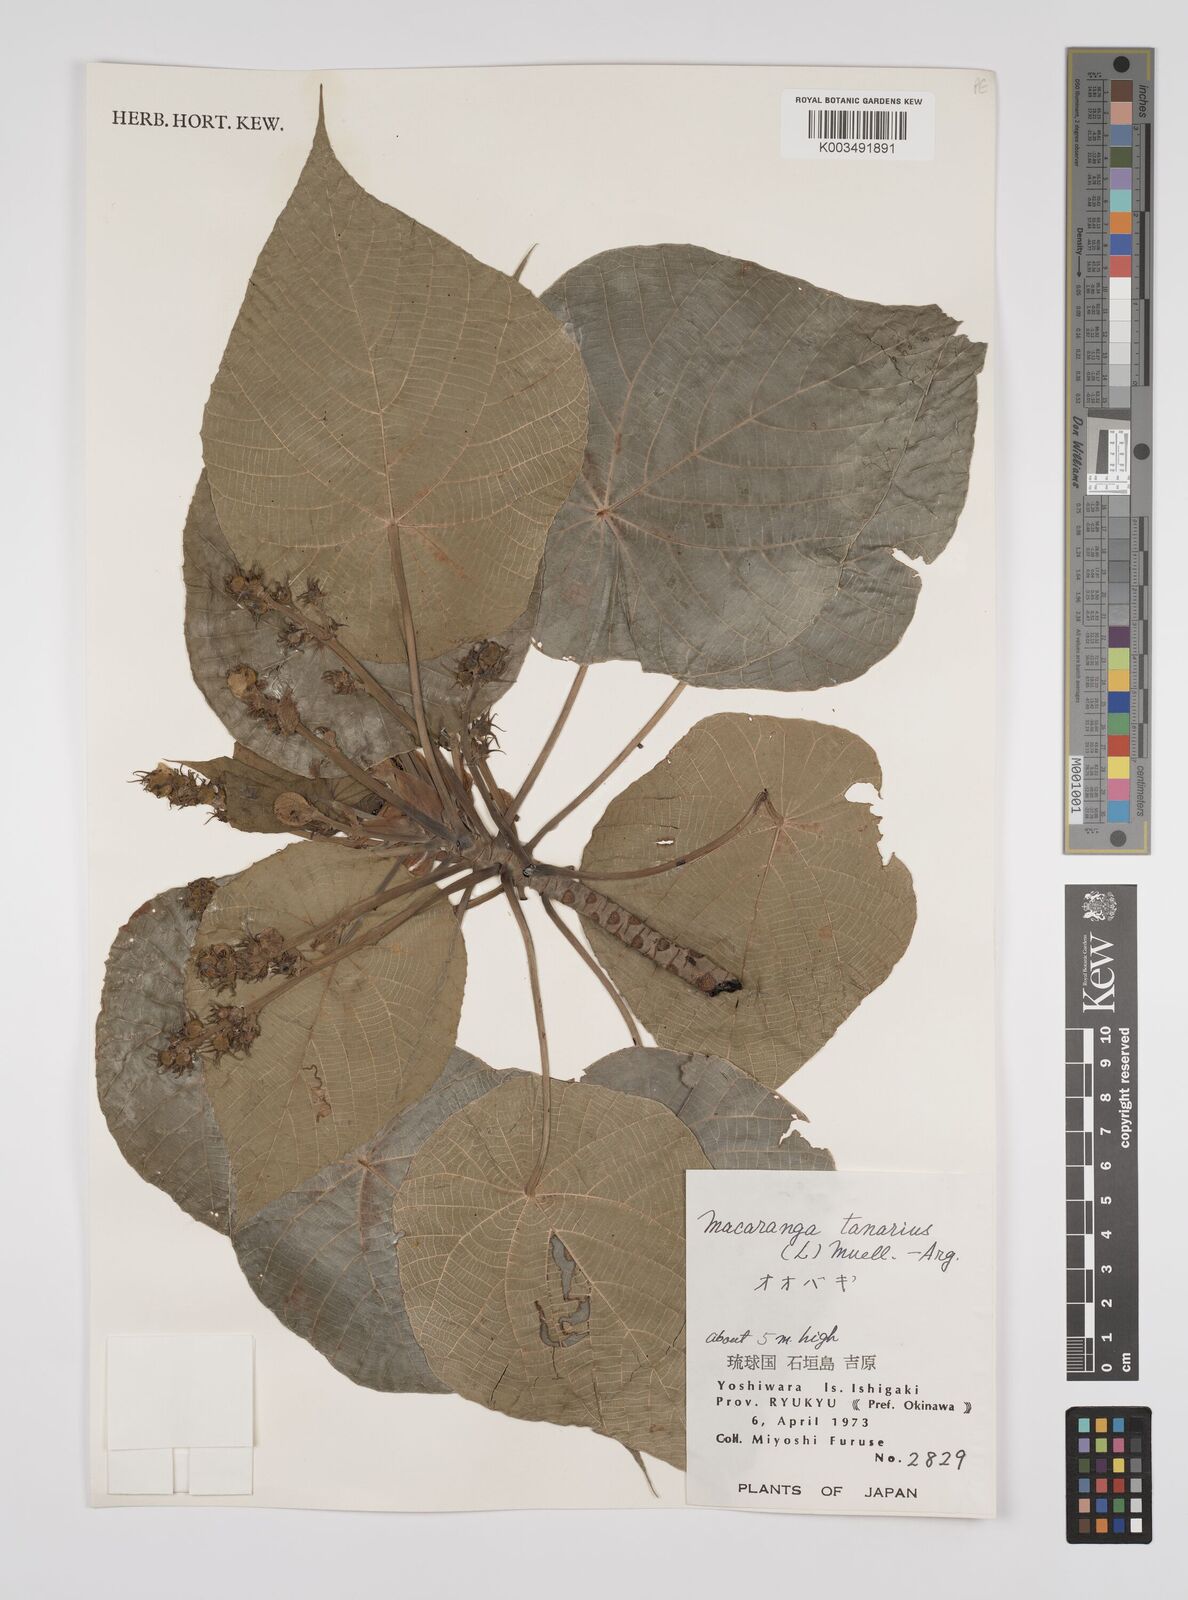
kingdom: Plantae
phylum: Tracheophyta
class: Magnoliopsida
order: Malpighiales
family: Euphorbiaceae
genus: Macaranga
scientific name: Macaranga tanarius
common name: Parasol leaf tree
